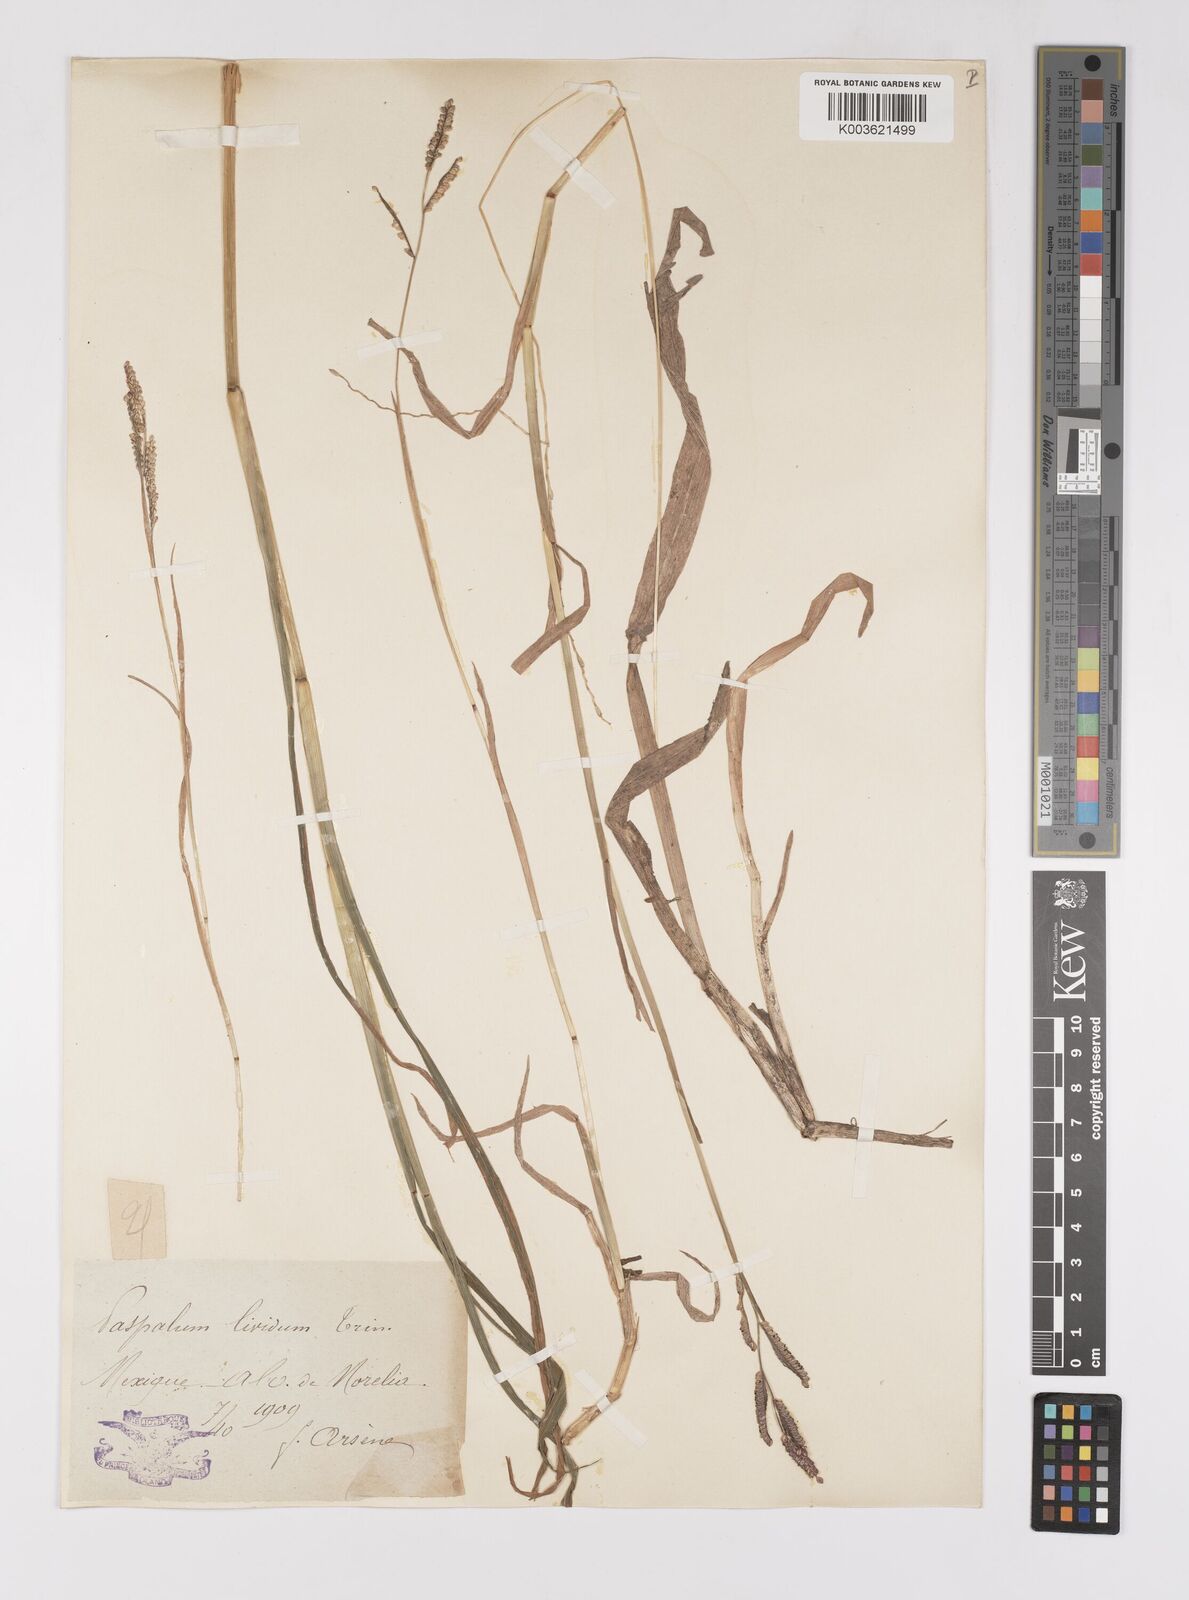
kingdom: Plantae
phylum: Tracheophyta
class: Liliopsida
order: Poales
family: Poaceae
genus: Paspalum
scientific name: Paspalum denticulatum
